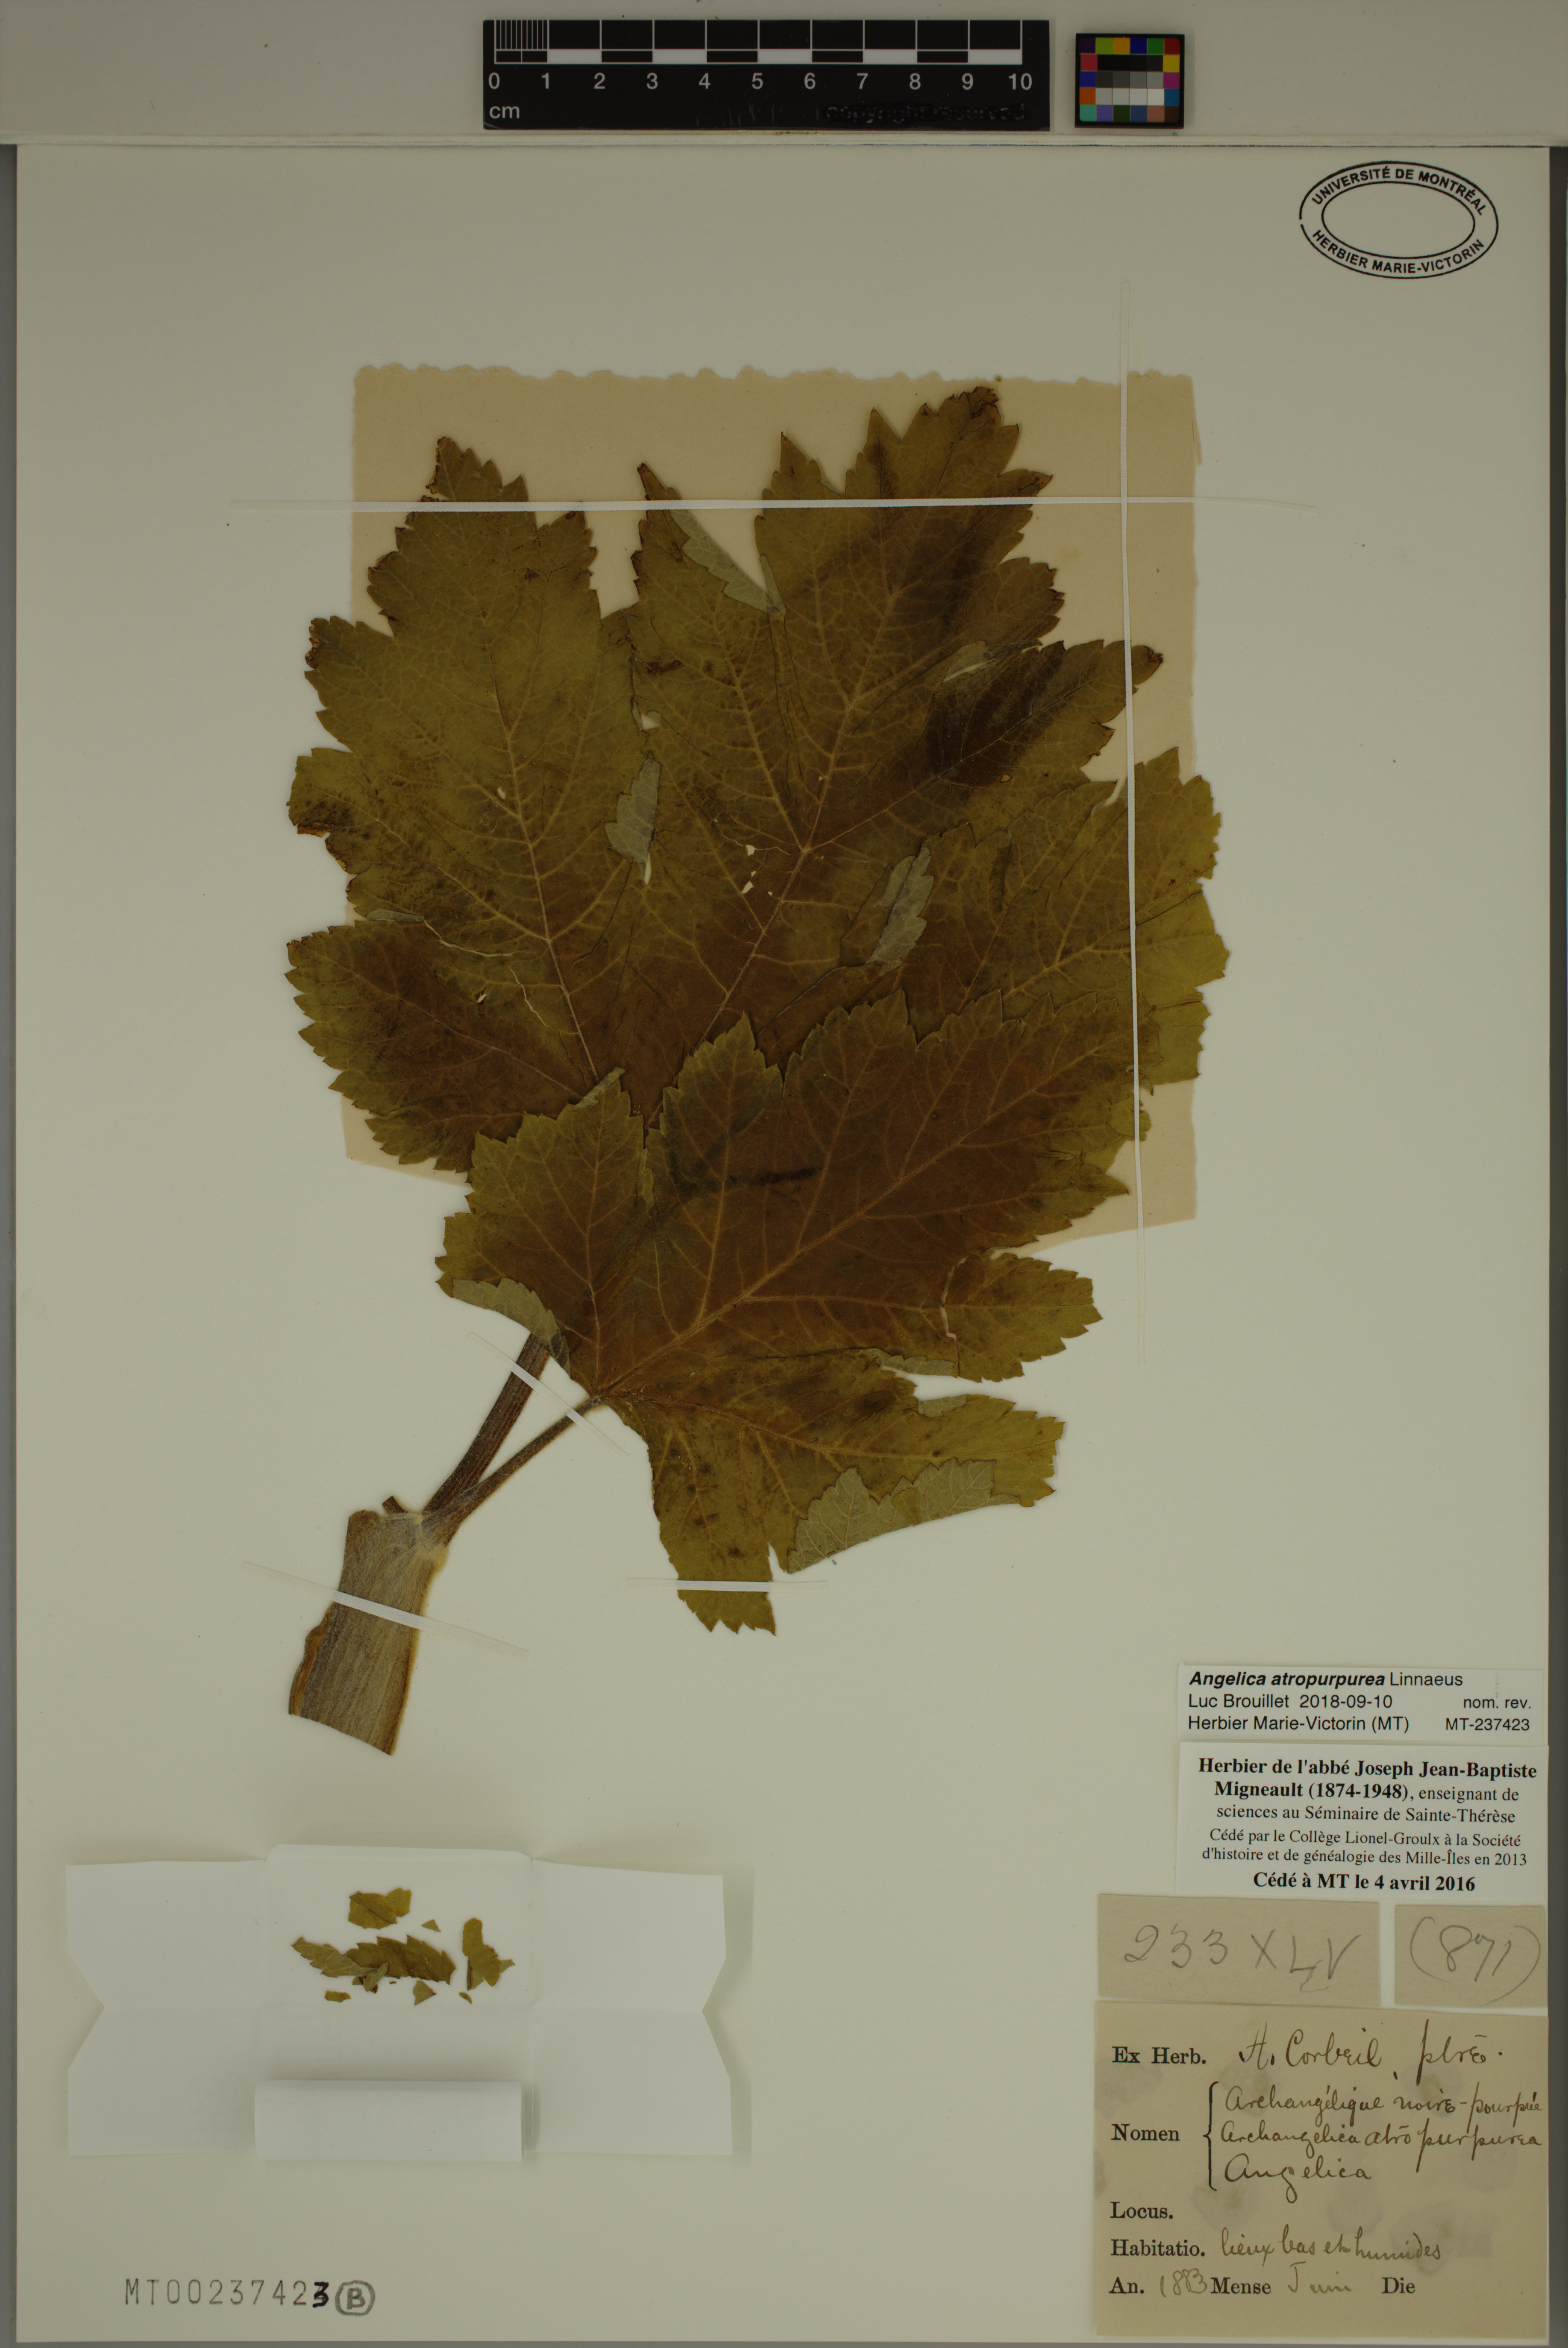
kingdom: Plantae
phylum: Tracheophyta
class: Magnoliopsida
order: Apiales
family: Apiaceae
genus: Angelica
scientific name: Angelica atropurpurea
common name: Great angelica
